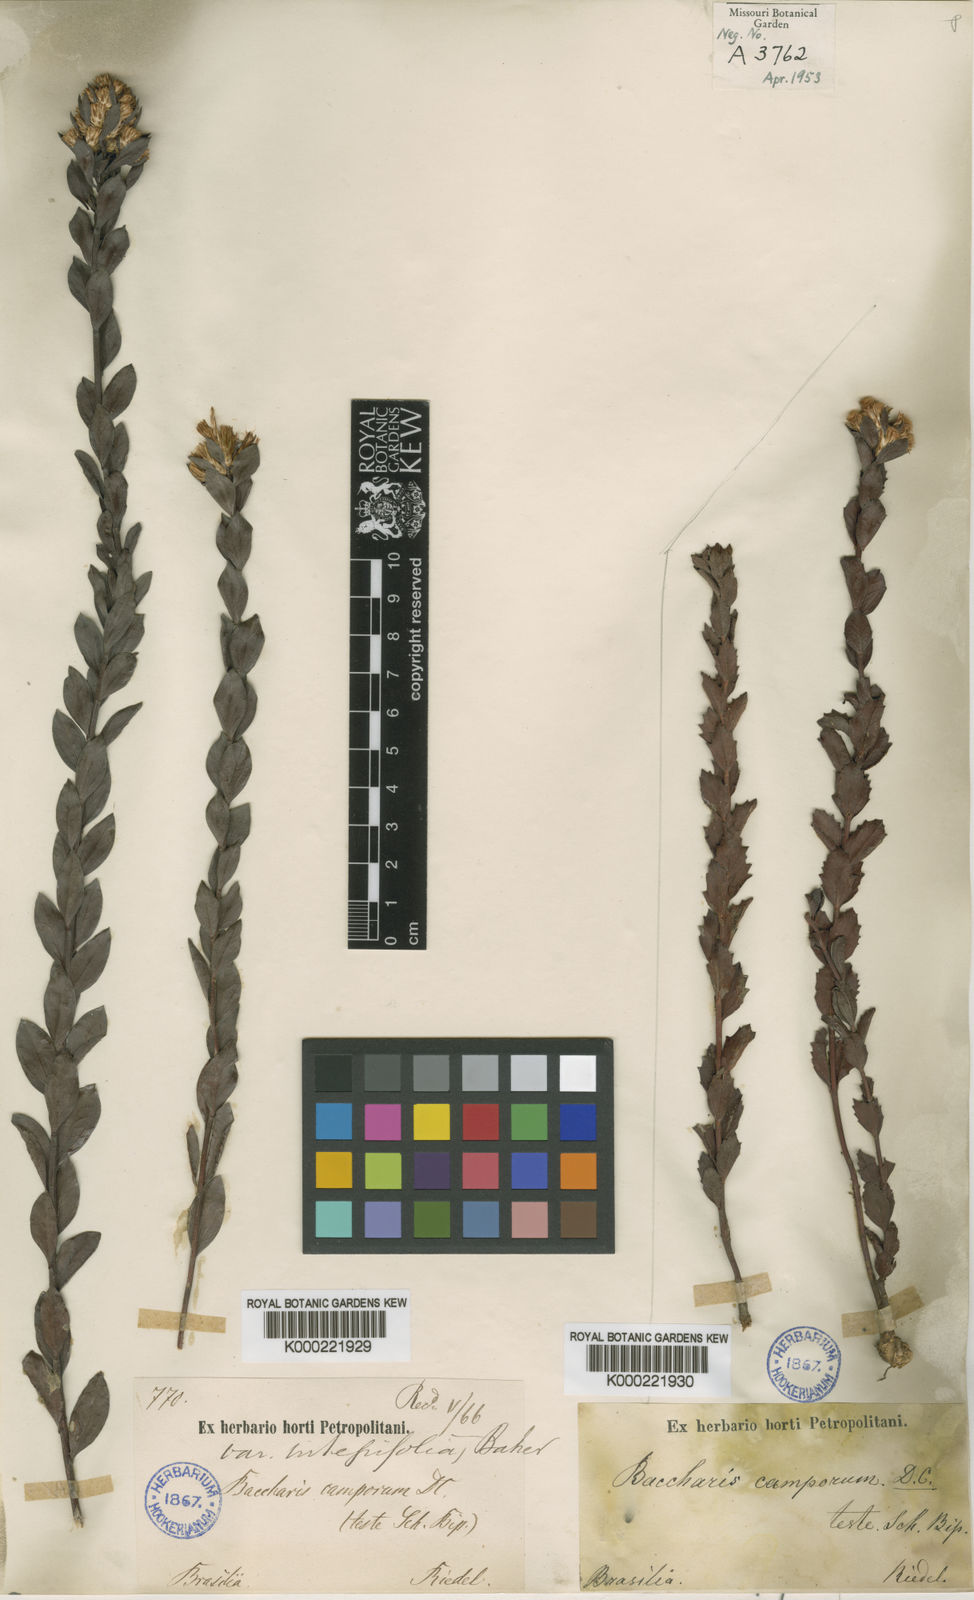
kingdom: Plantae
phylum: Tracheophyta
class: Magnoliopsida
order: Asterales
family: Asteraceae
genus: Baccharis
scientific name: Baccharis camporum
